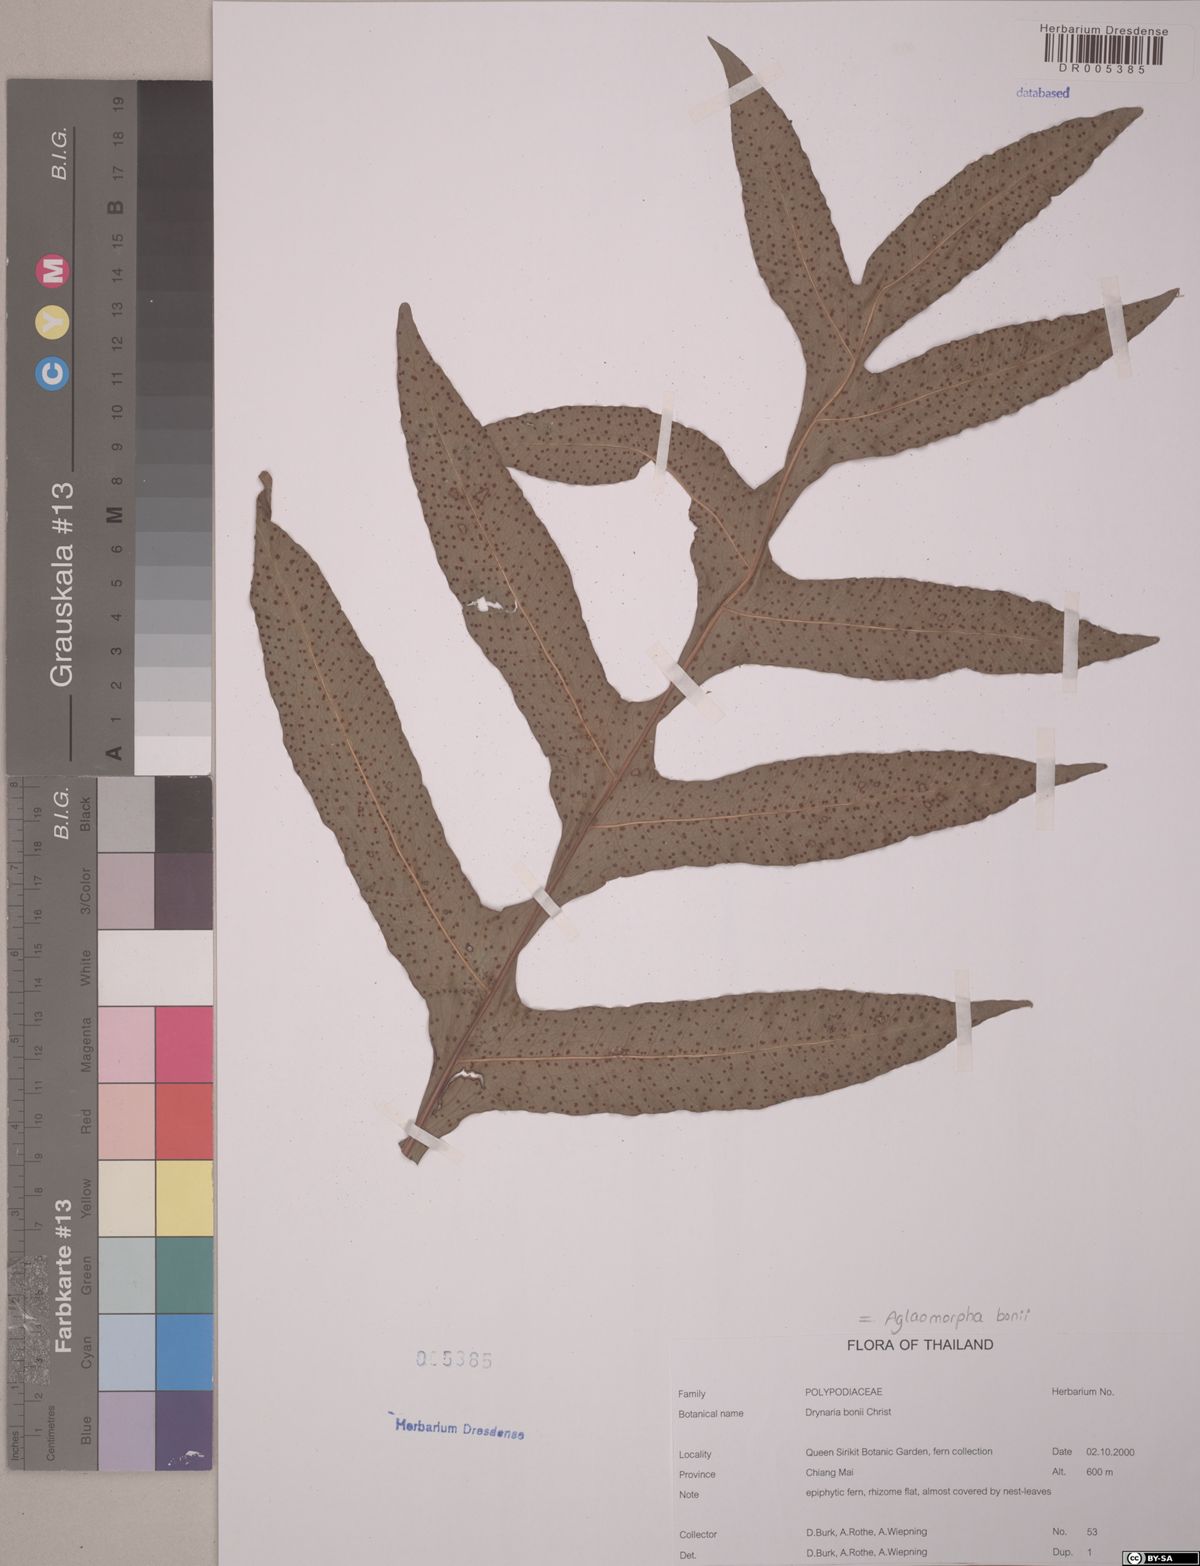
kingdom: Plantae
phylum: Tracheophyta
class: Polypodiopsida
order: Polypodiales
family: Polypodiaceae
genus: Drynaria
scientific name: Drynaria bonii
